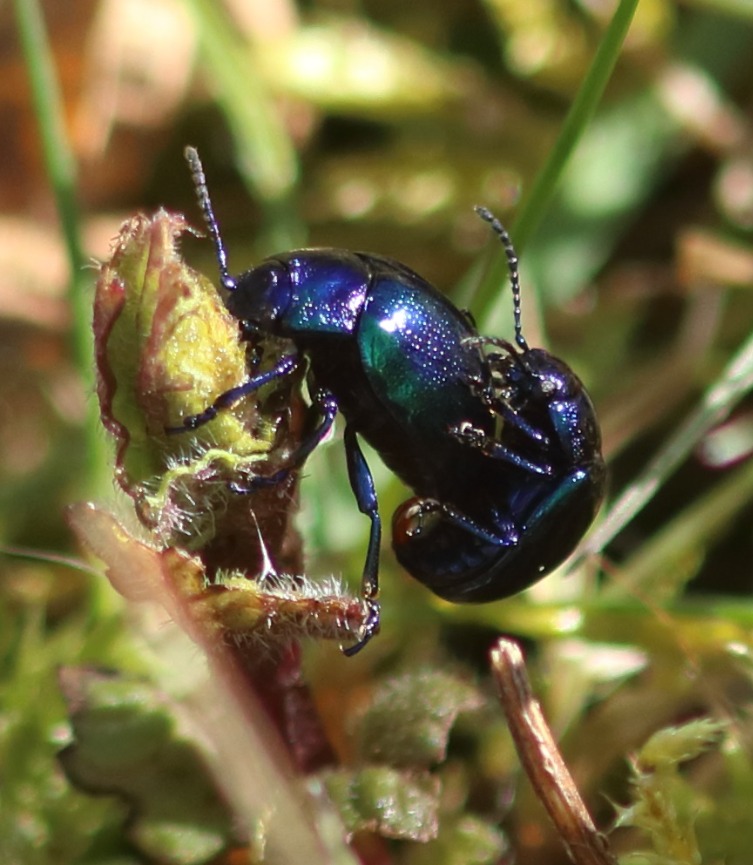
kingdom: Animalia
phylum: Arthropoda
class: Insecta
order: Coleoptera
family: Chrysomelidae
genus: Chrysolina
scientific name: Chrysolina coerulans
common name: Blå mynteguldbille
